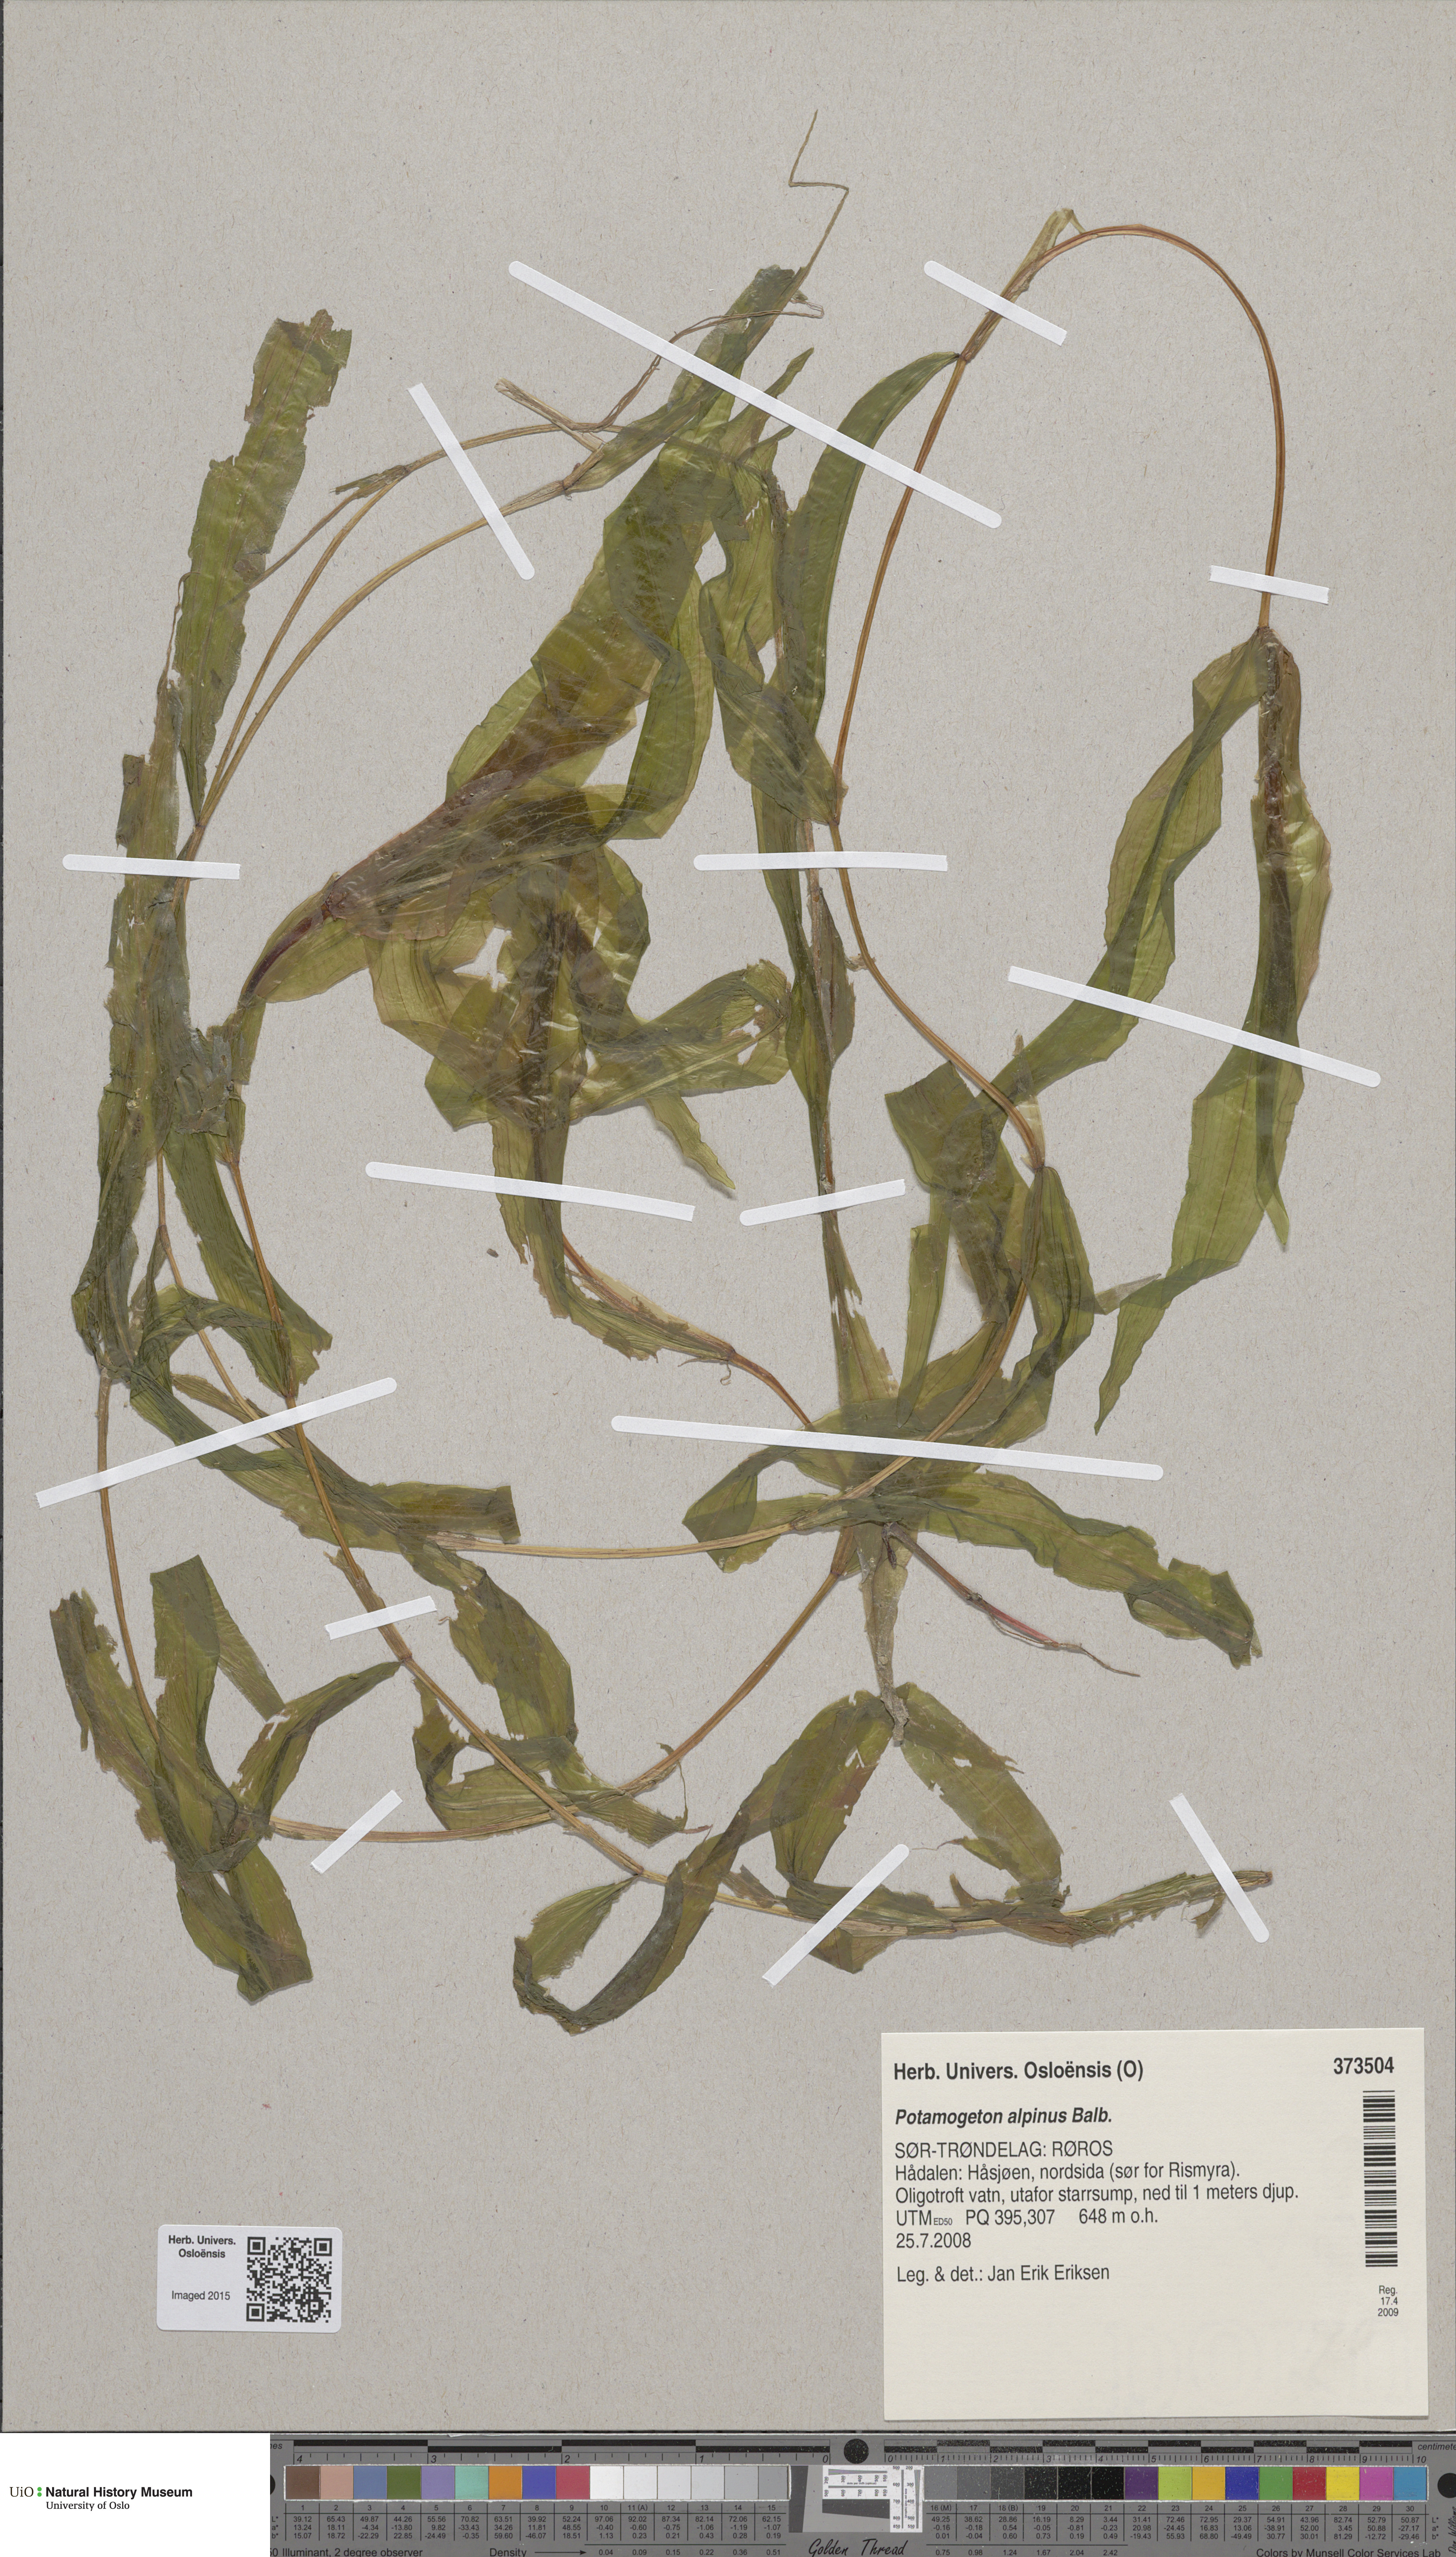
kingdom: Plantae
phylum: Tracheophyta
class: Liliopsida
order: Alismatales
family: Potamogetonaceae
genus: Potamogeton
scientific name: Potamogeton alpinus
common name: Red pondweed
